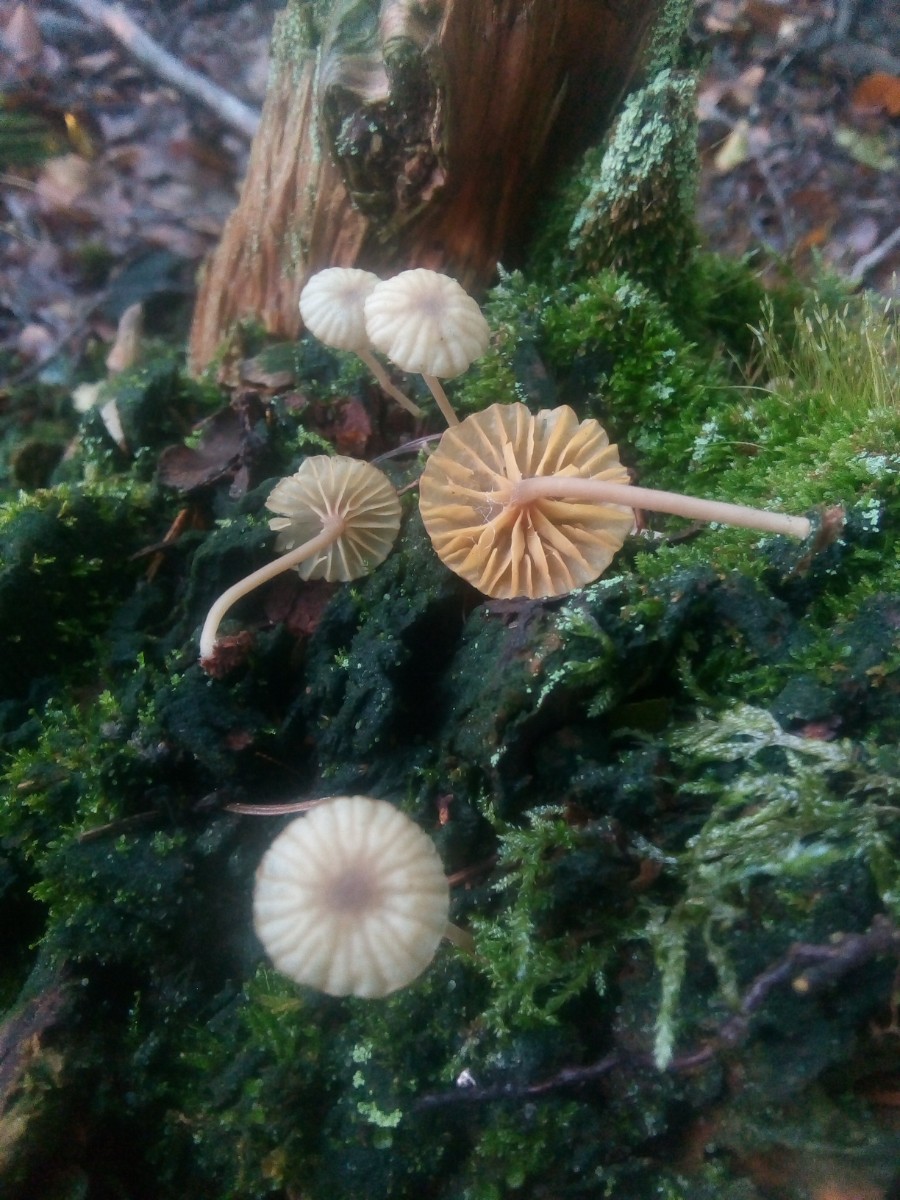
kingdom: Fungi
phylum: Basidiomycota
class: Agaricomycetes
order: Agaricales
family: Hygrophoraceae
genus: Lichenomphalia
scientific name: Lichenomphalia umbellifera
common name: tørve-lavhat
